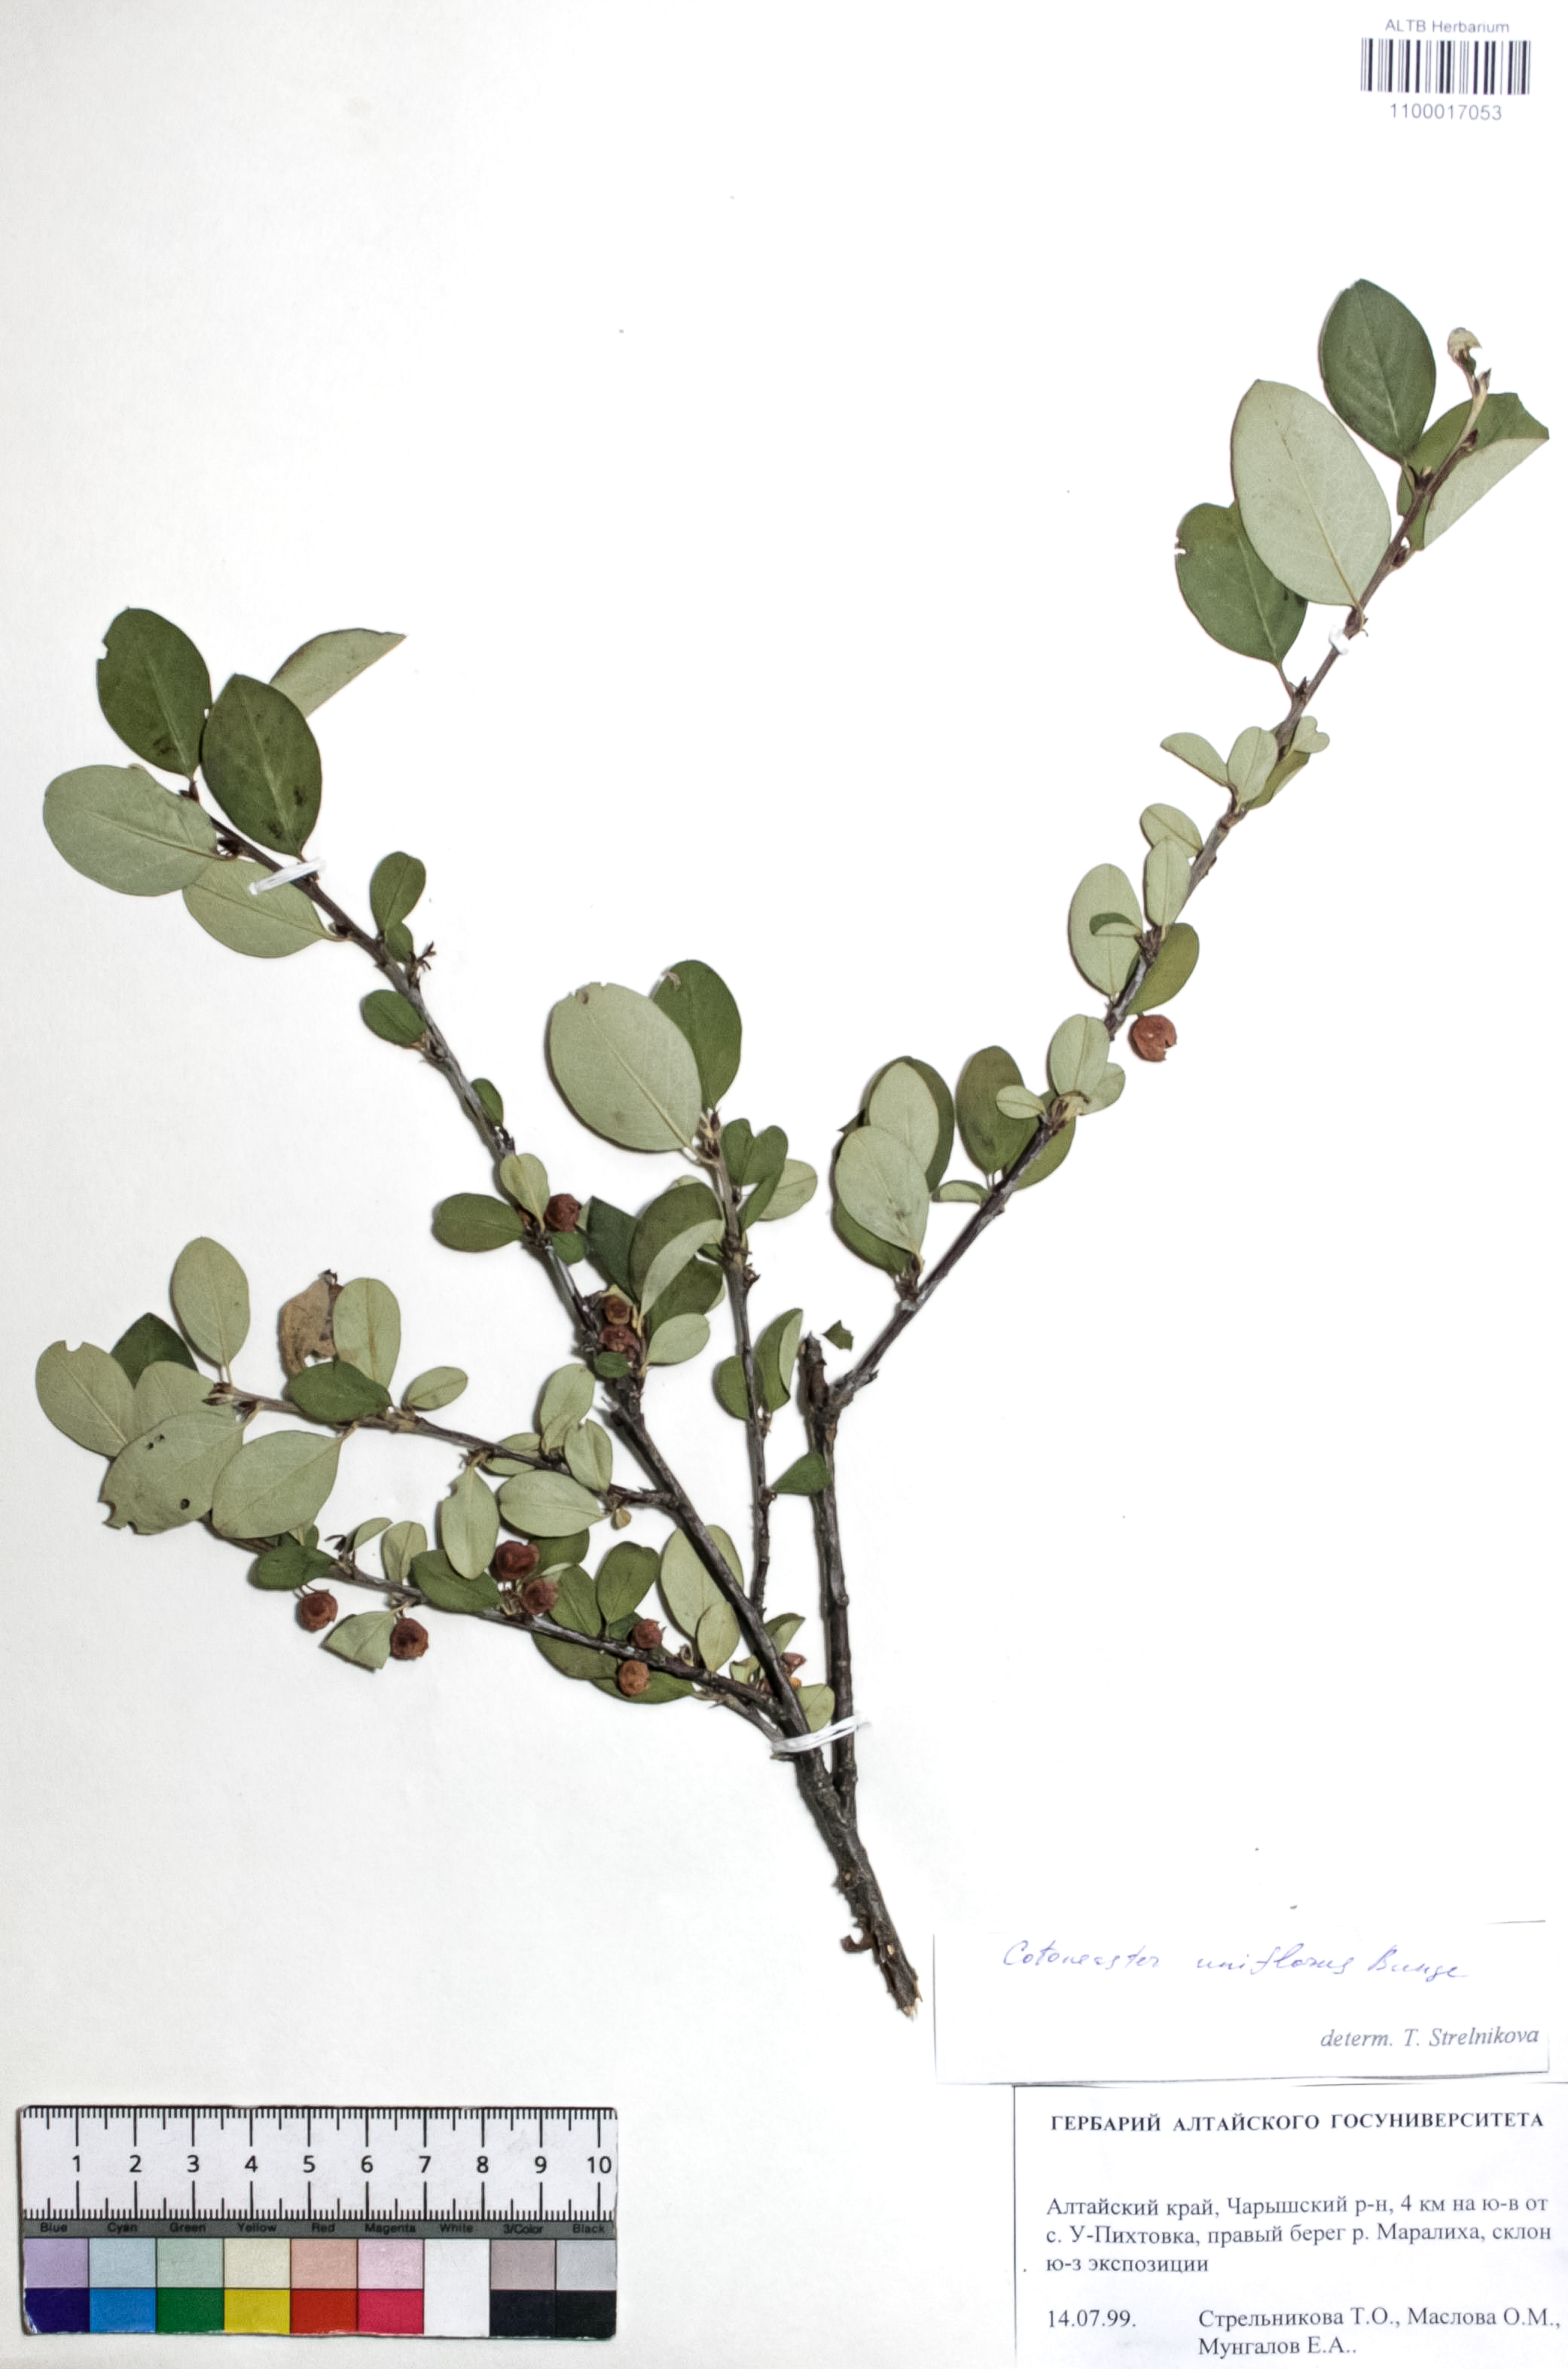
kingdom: Plantae
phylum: Tracheophyta
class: Magnoliopsida
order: Rosales
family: Rosaceae
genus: Cotoneaster
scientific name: Cotoneaster uniflorus
